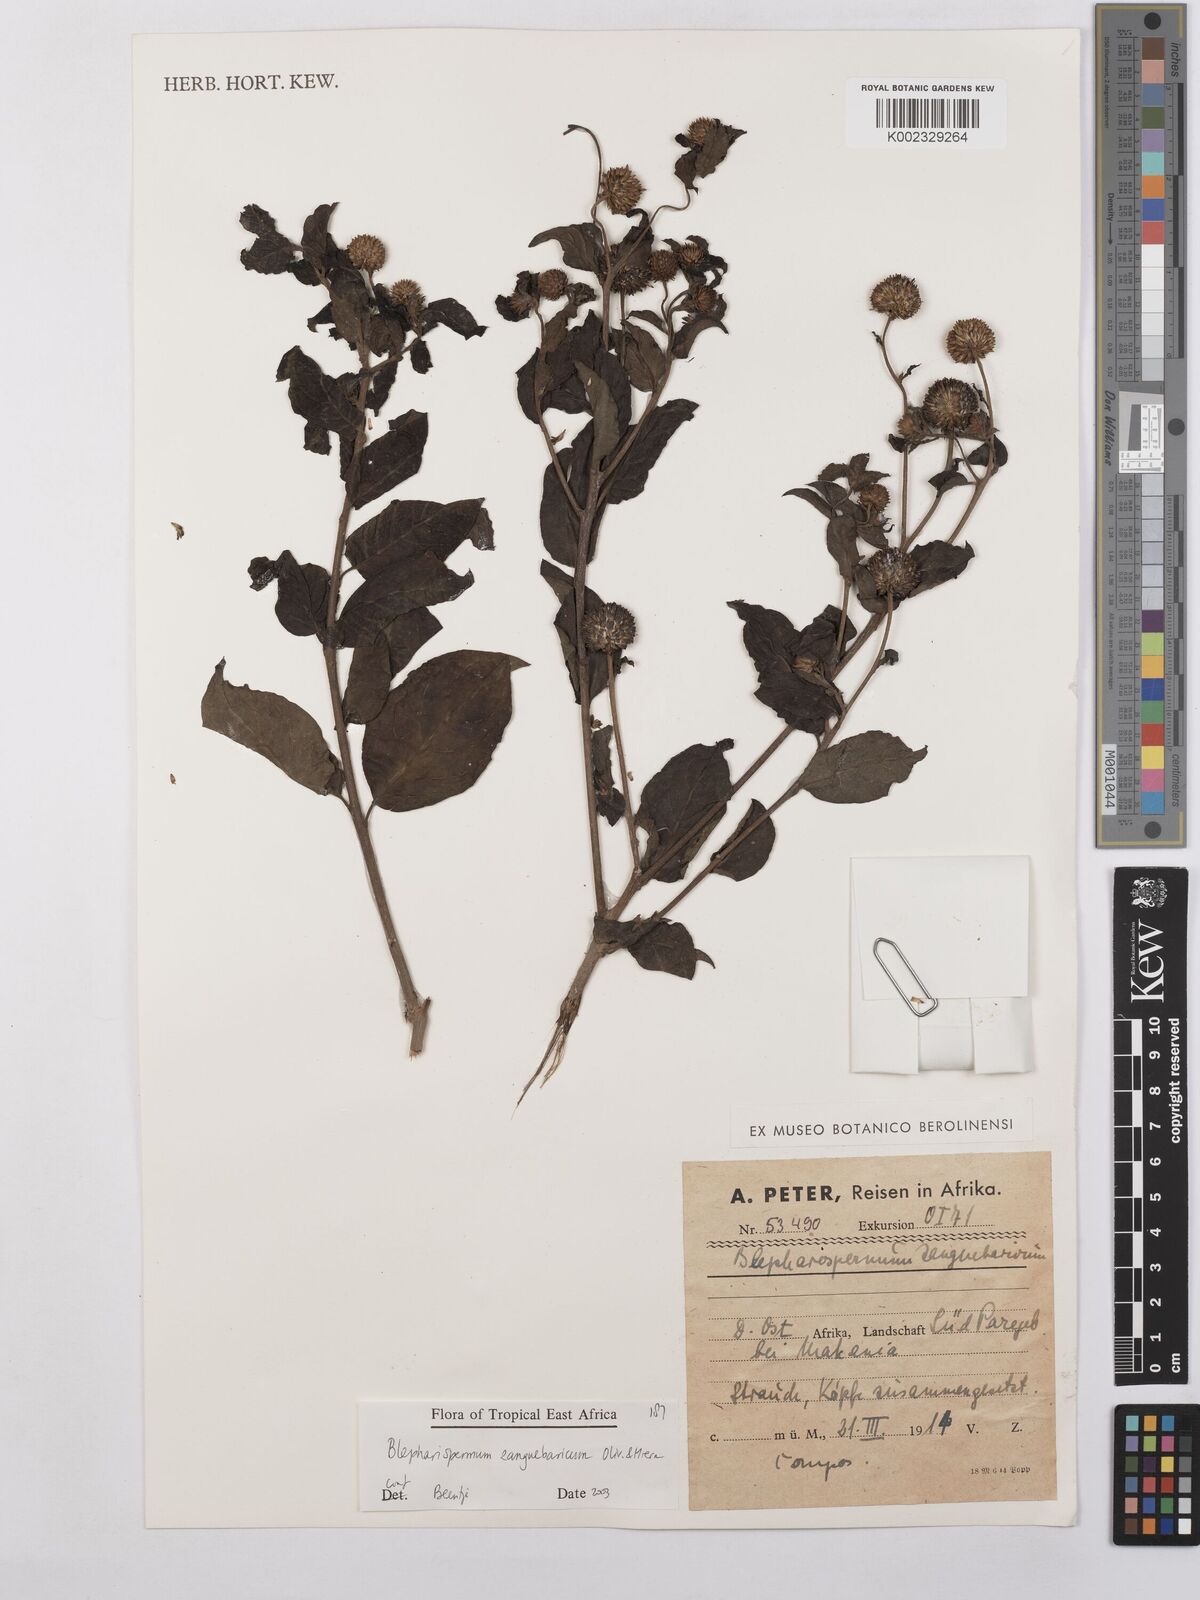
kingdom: Plantae
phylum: Tracheophyta
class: Magnoliopsida
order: Asterales
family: Asteraceae
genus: Blepharispermum
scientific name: Blepharispermum zanguebaricum
